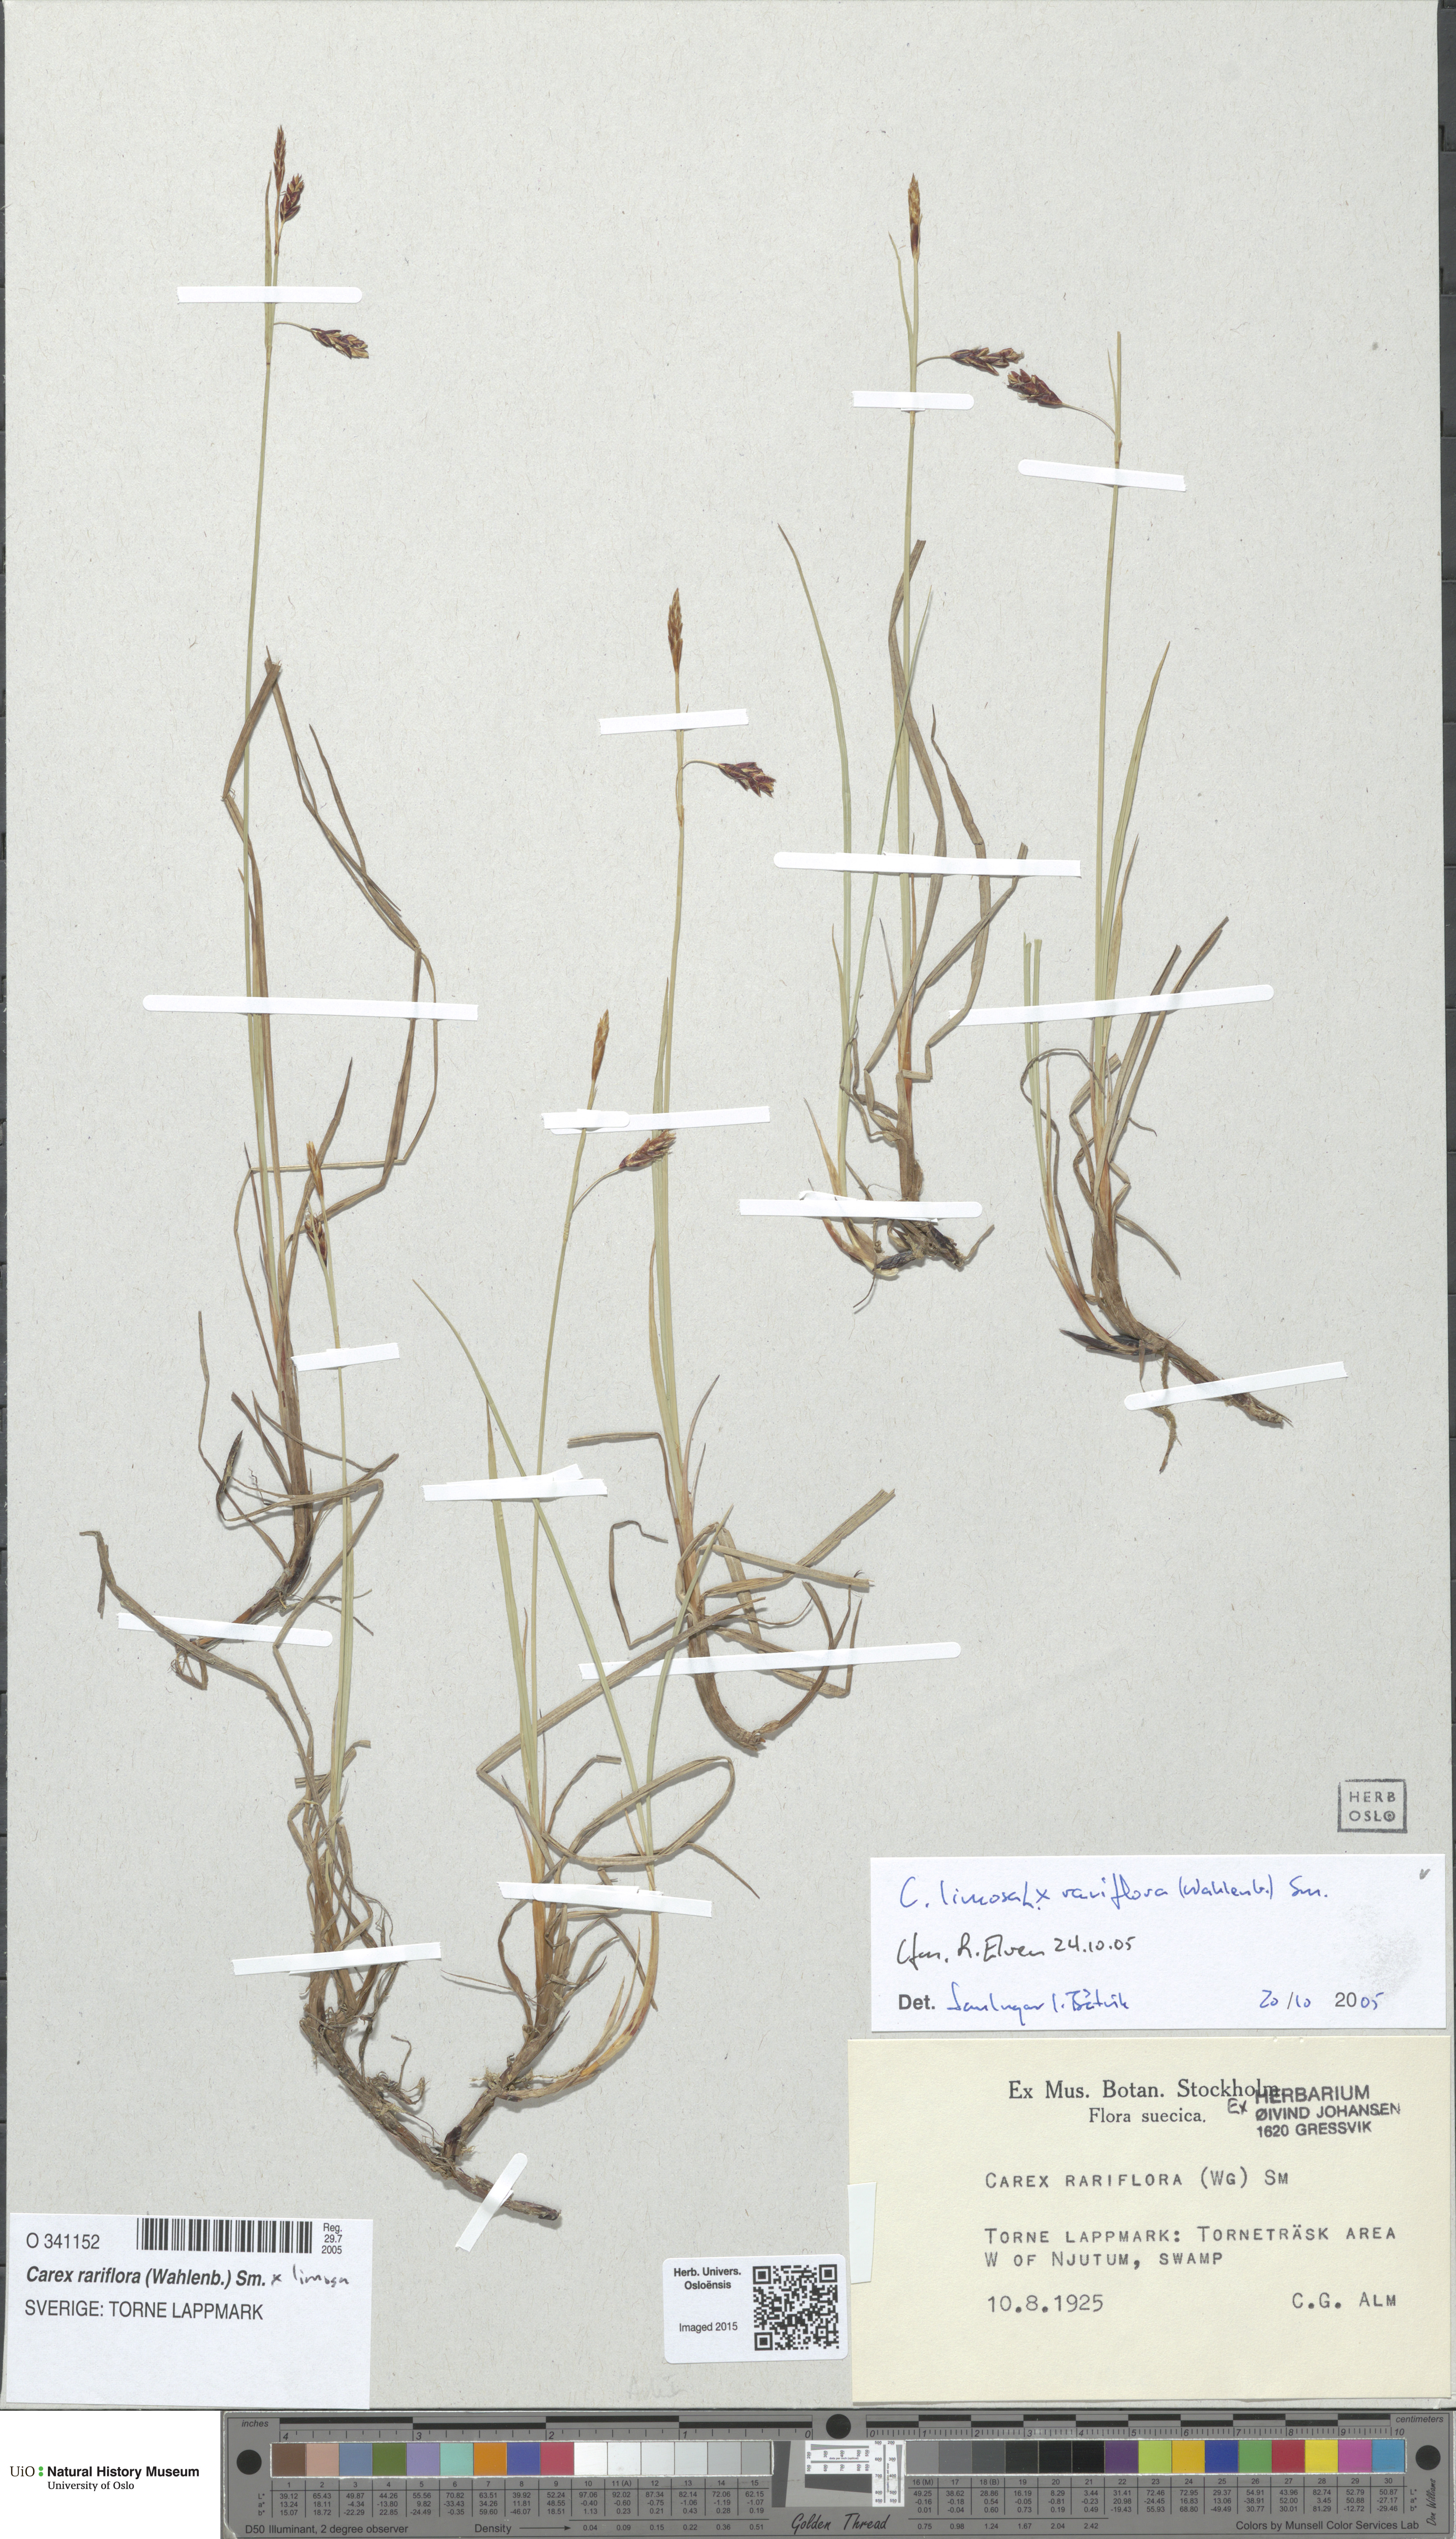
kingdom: Plantae
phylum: Tracheophyta
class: Liliopsida
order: Poales
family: Cyperaceae
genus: Carex
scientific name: Carex
